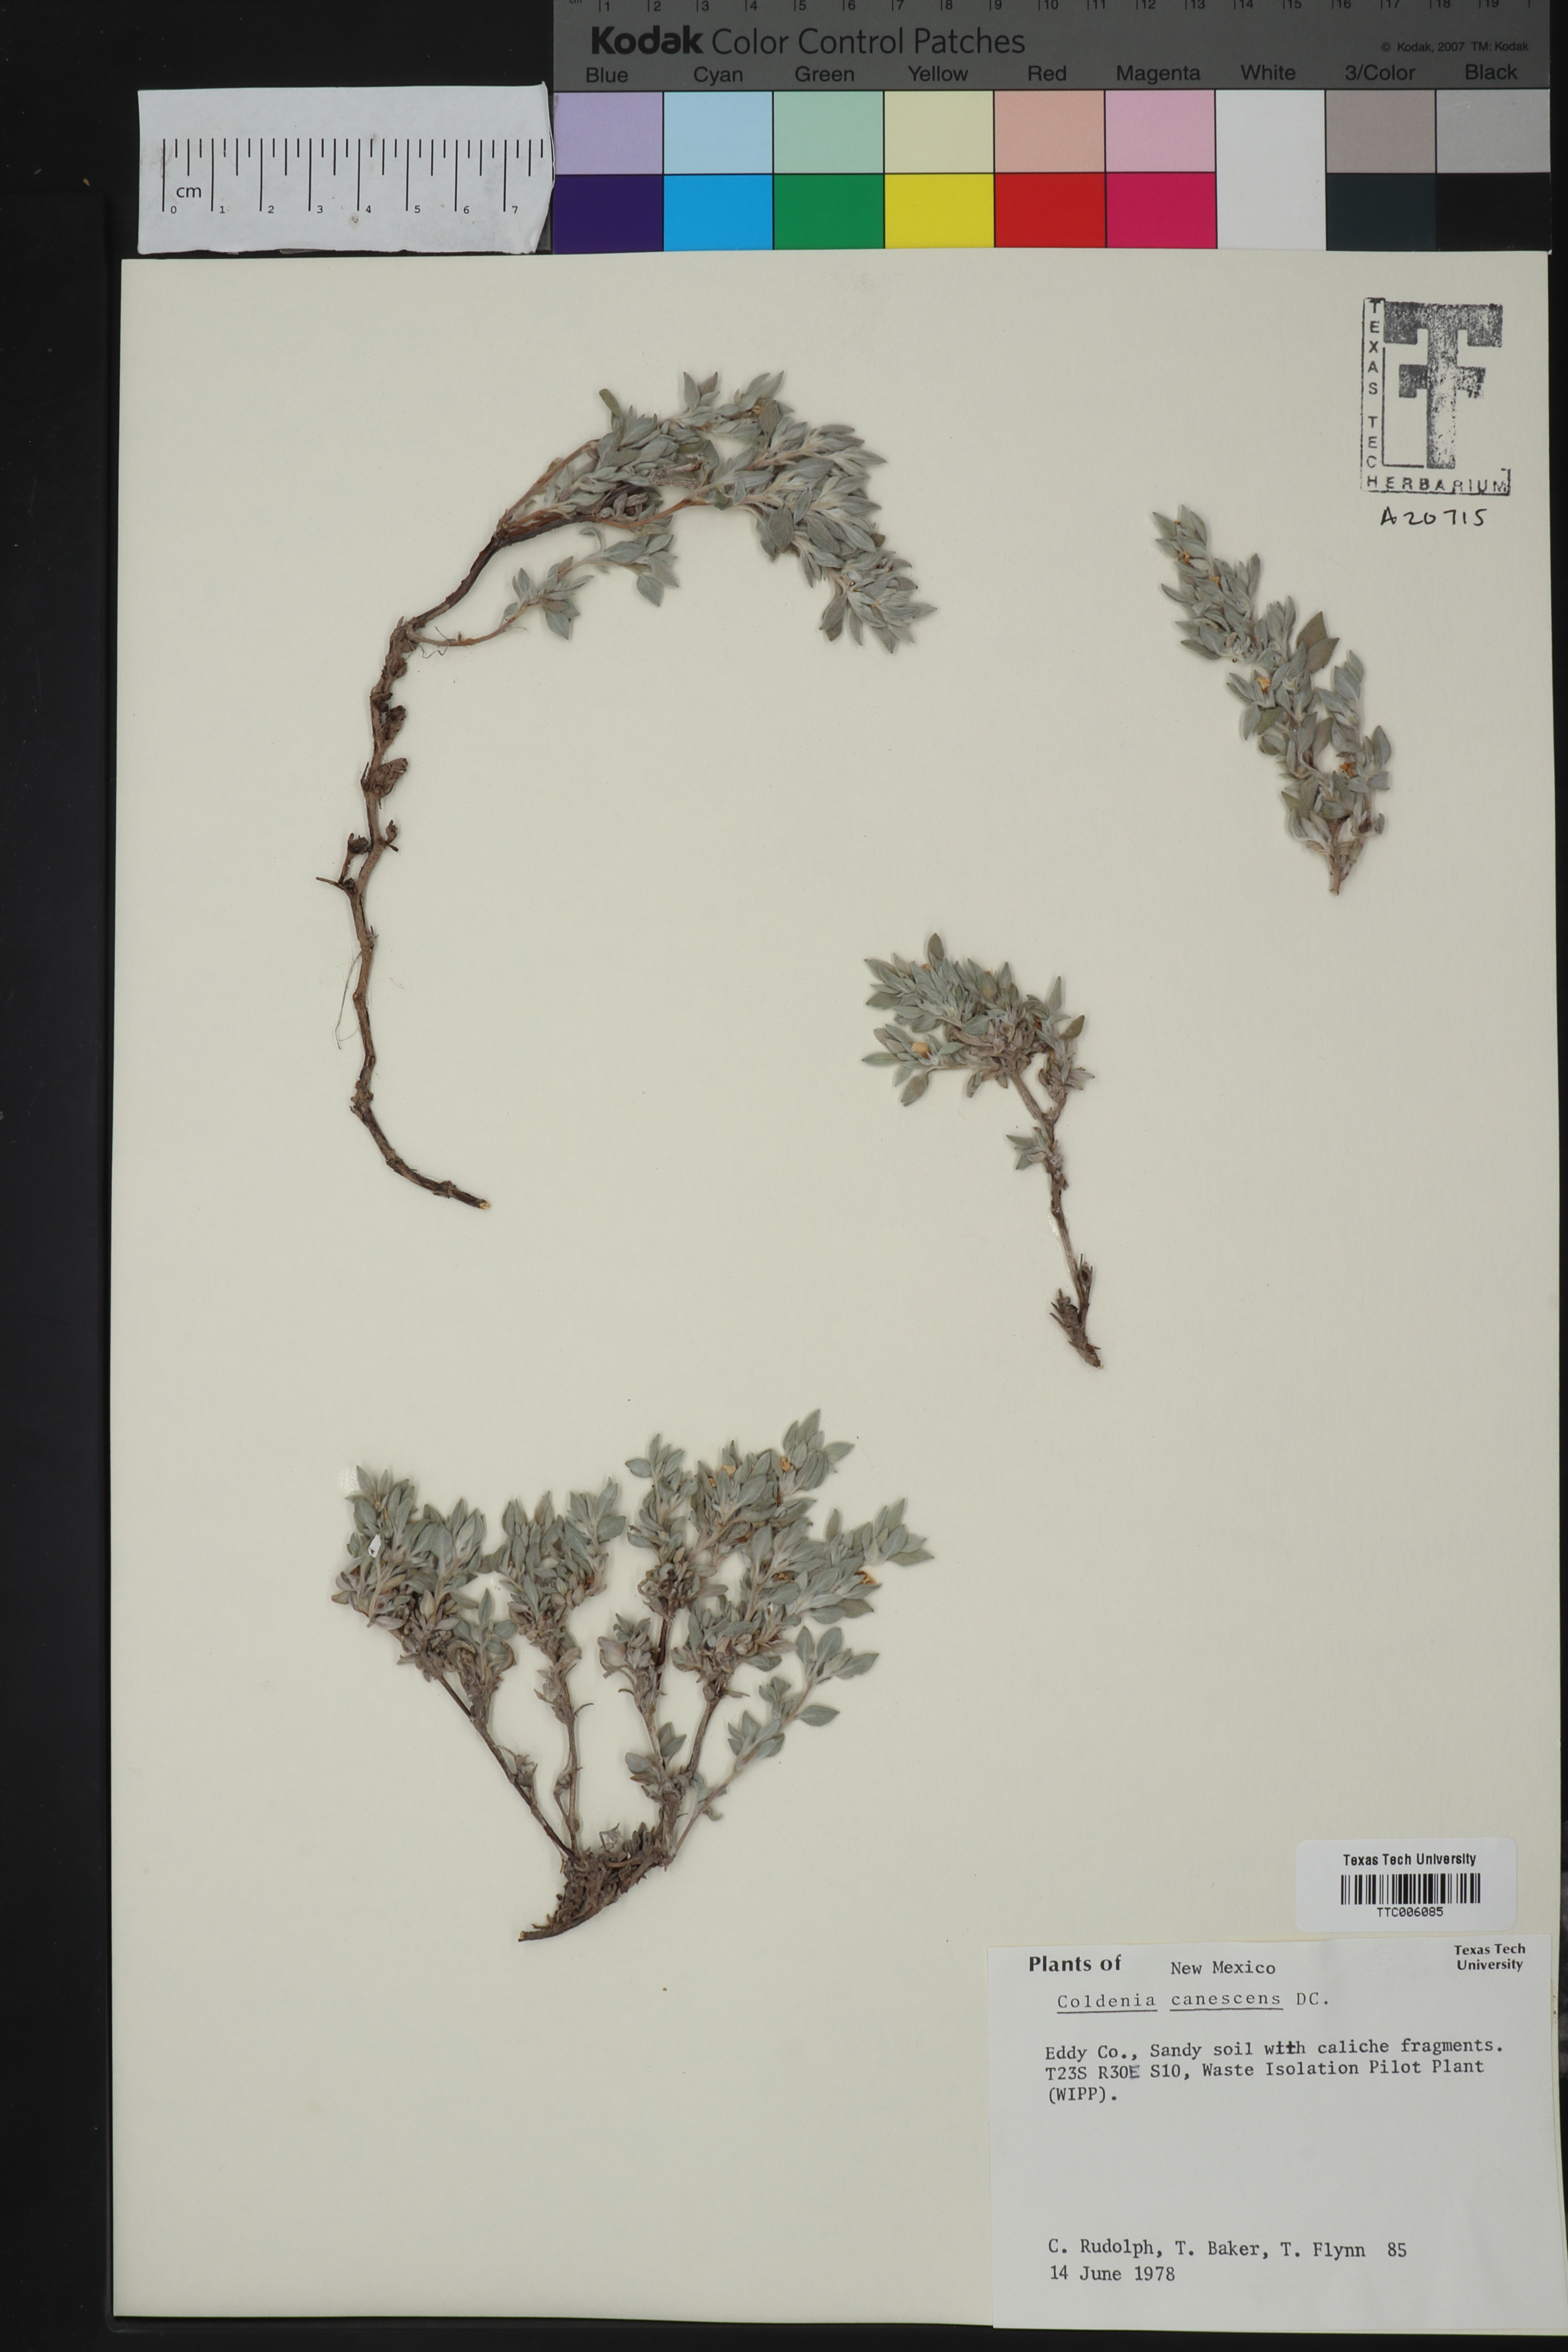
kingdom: Plantae
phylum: Tracheophyta
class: Magnoliopsida
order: Boraginales
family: Ehretiaceae
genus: Tiquilia
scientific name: Tiquilia canescens
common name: Hairy tiquilia
